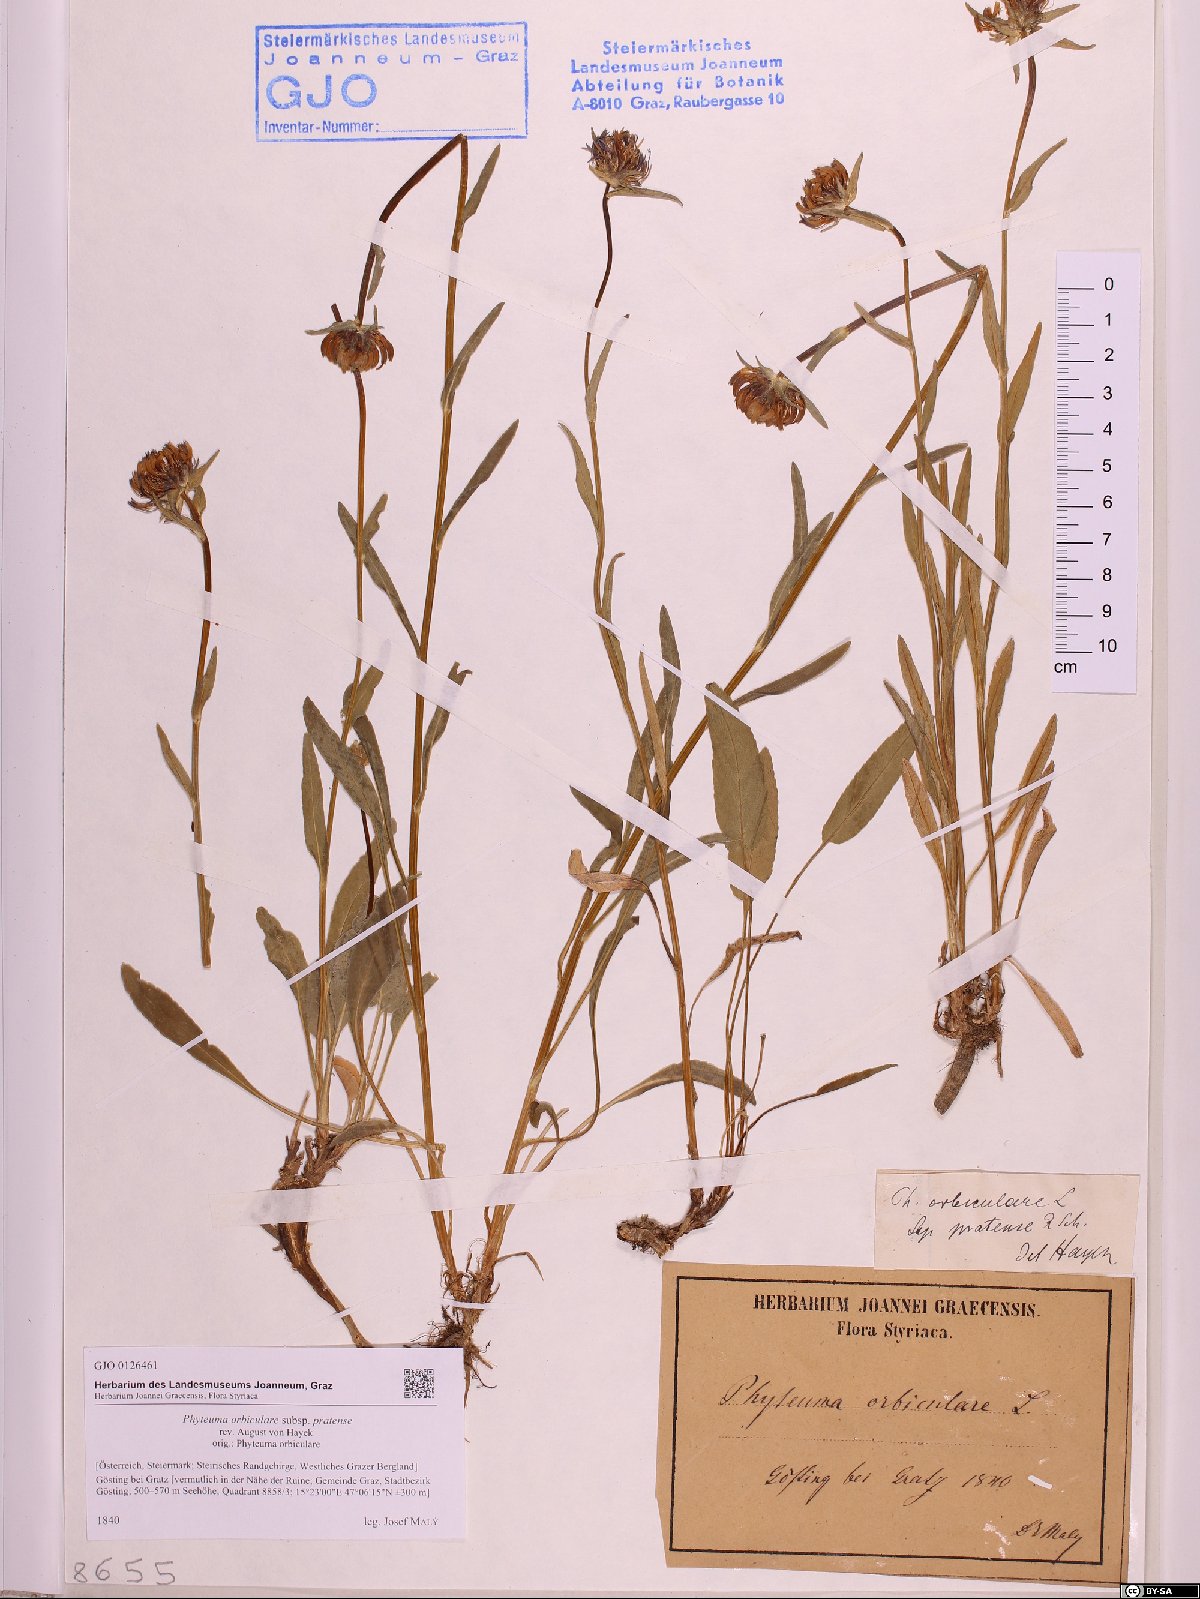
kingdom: Plantae
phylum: Tracheophyta
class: Magnoliopsida
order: Asterales
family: Campanulaceae
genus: Phyteuma
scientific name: Phyteuma orbiculare
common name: Round-headed rampion
